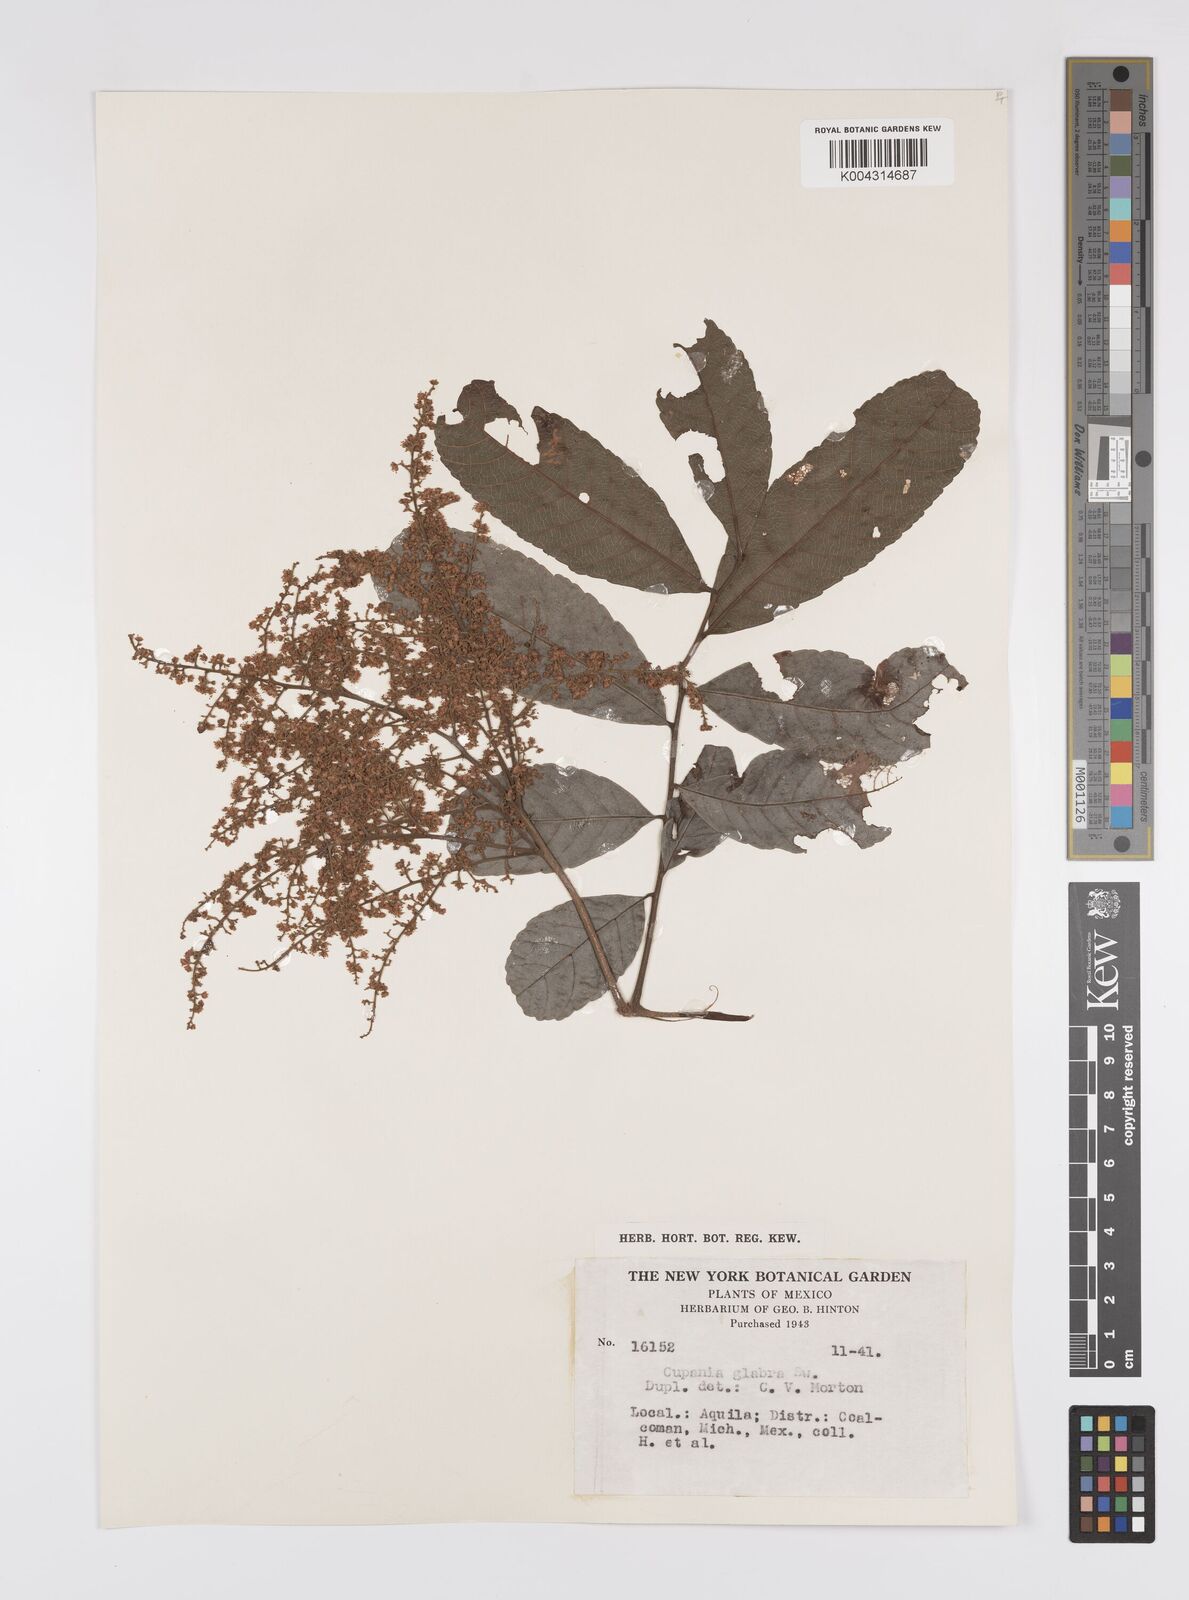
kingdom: Plantae
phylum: Tracheophyta
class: Magnoliopsida
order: Sapindales
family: Sapindaceae
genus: Cupania
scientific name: Cupania
